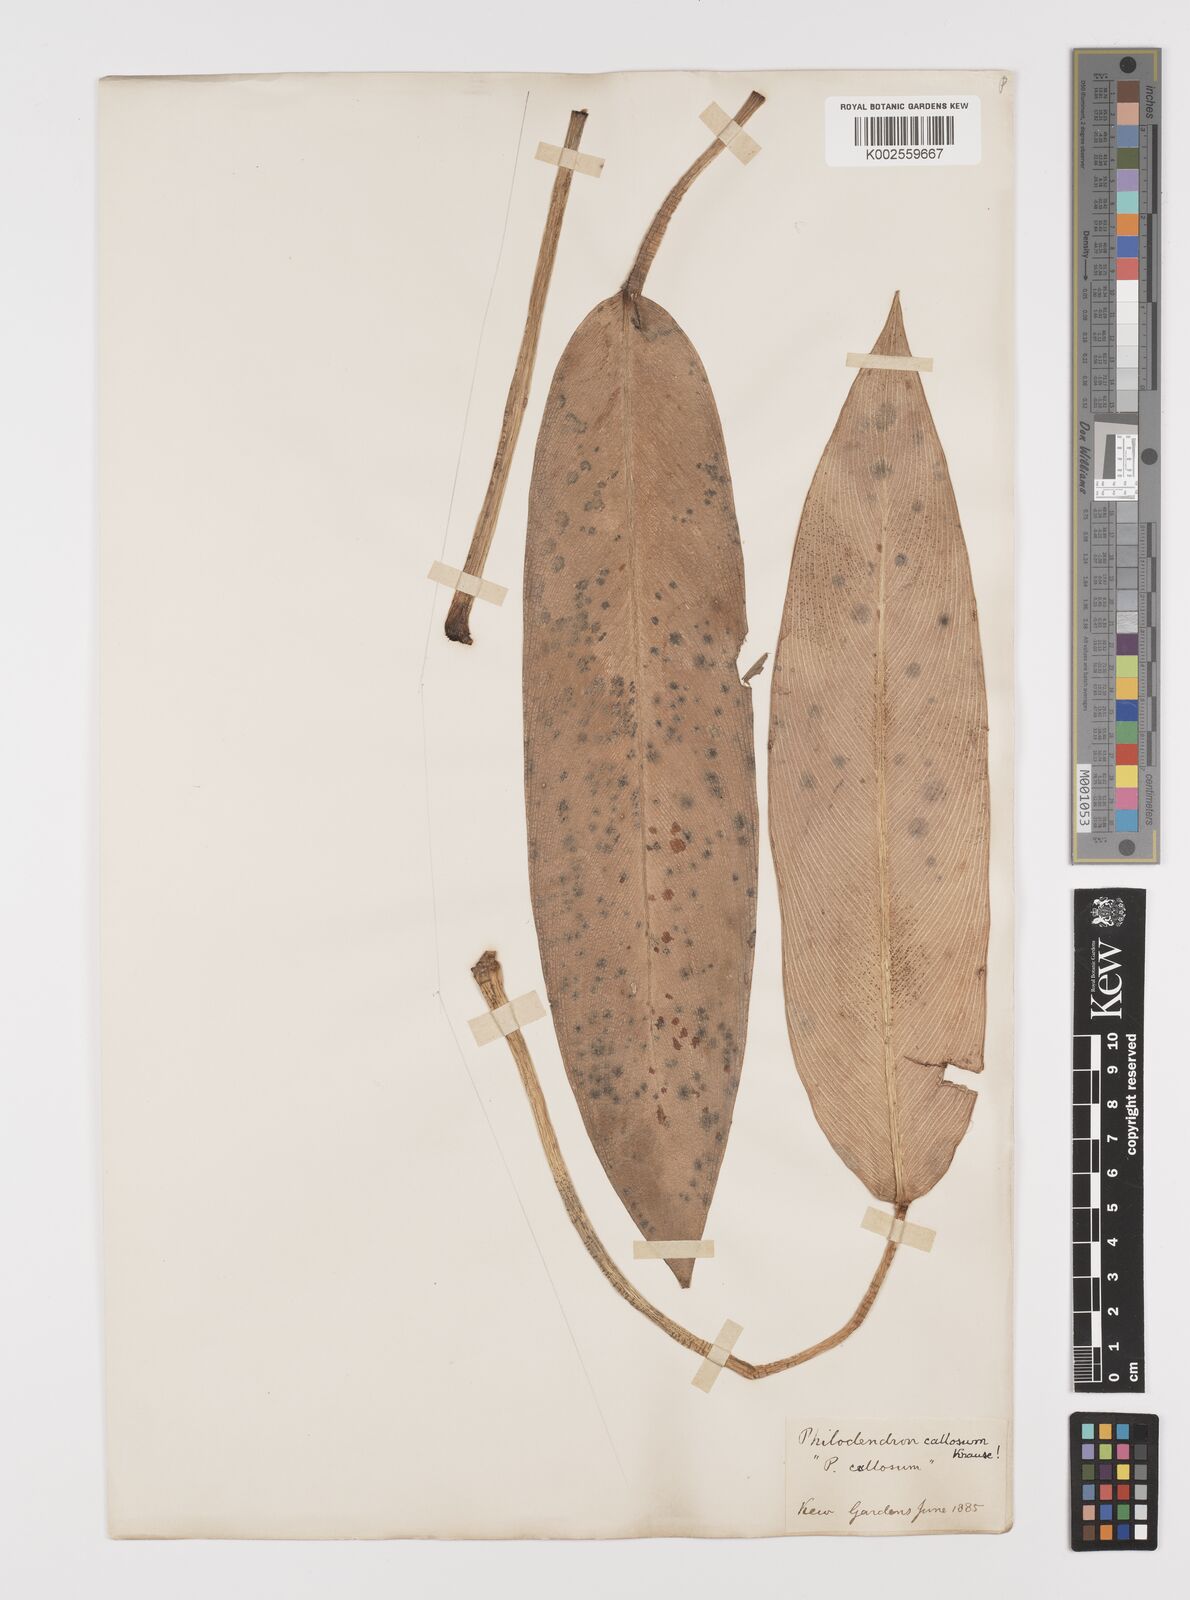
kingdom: Plantae
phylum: Tracheophyta
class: Liliopsida
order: Alismatales
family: Araceae
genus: Philodendron
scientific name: Philodendron callosum
